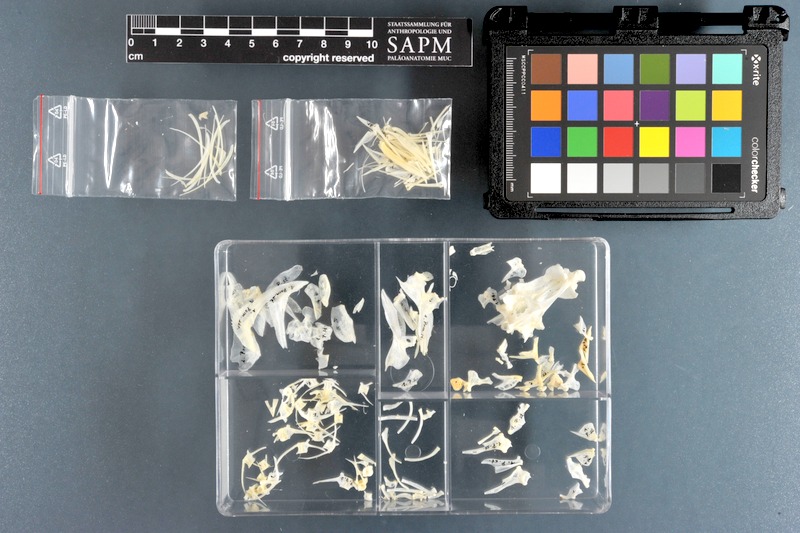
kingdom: Animalia
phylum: Chordata
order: Perciformes
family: Haemulidae
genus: Pomadasys
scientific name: Pomadasys striatus
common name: Striped grunter
